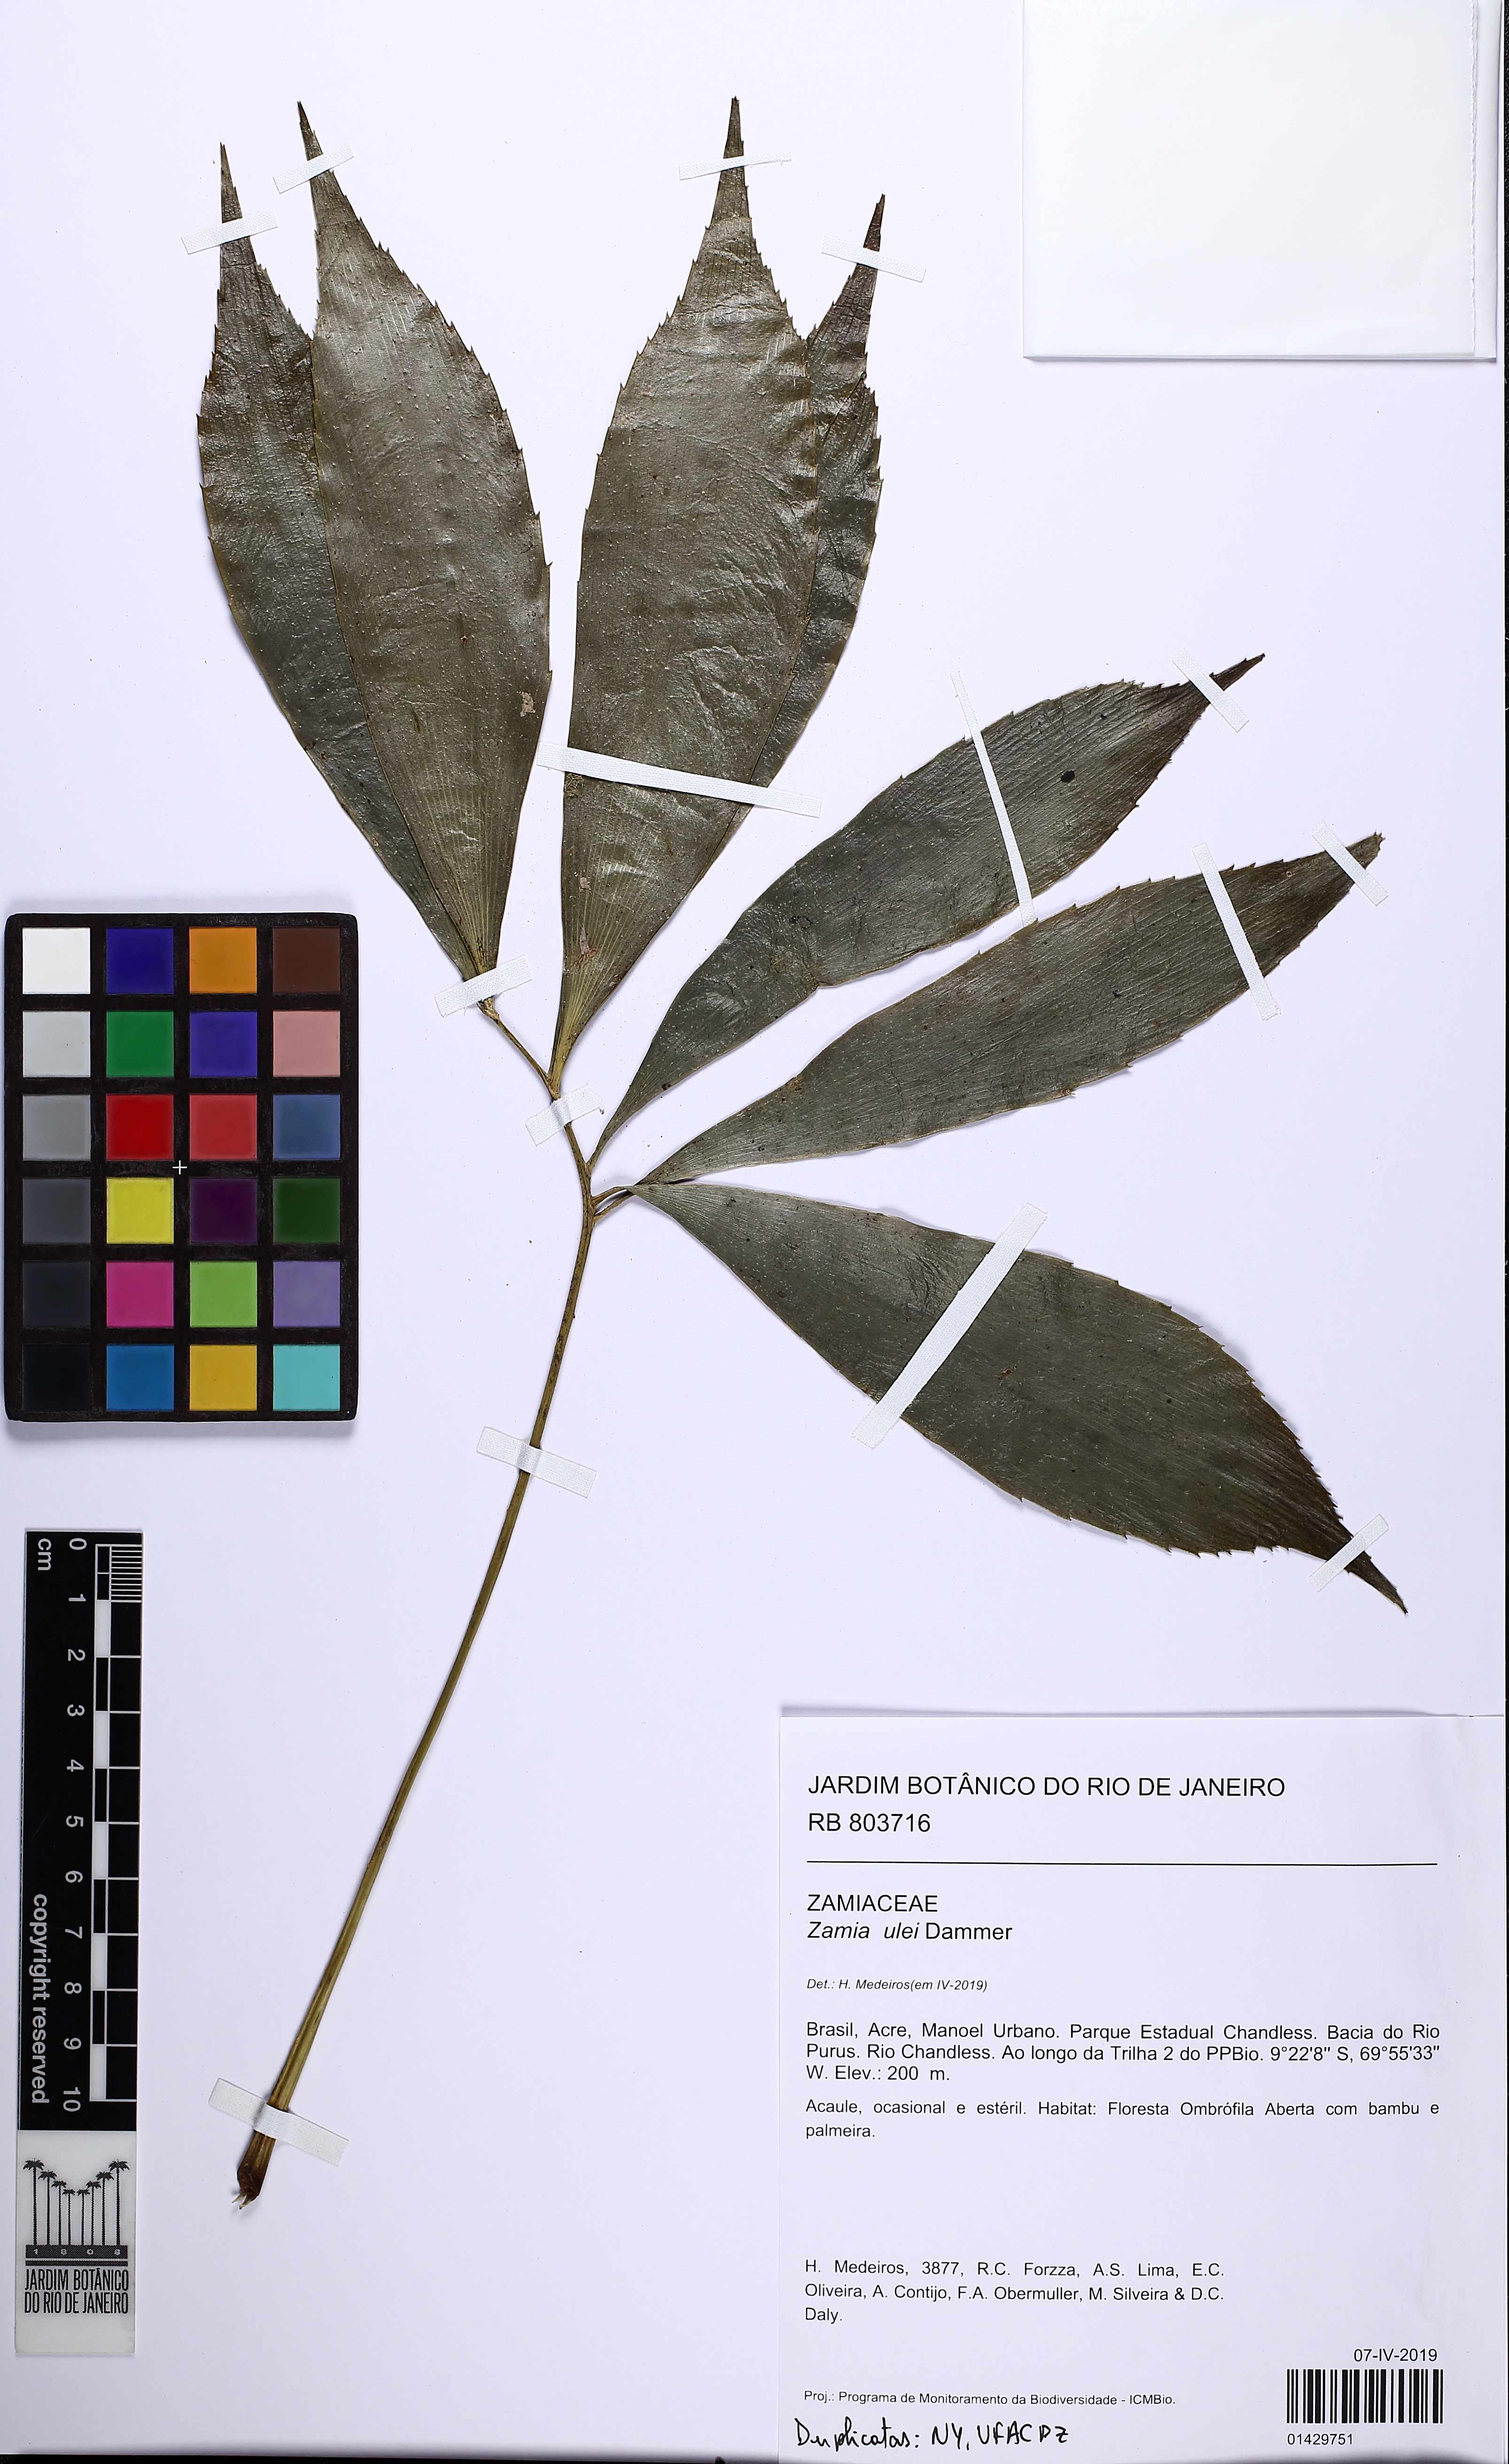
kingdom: Plantae
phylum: Tracheophyta
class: Cycadopsida
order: Cycadales
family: Zamiaceae
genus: Zamia
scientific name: Zamia ulei
